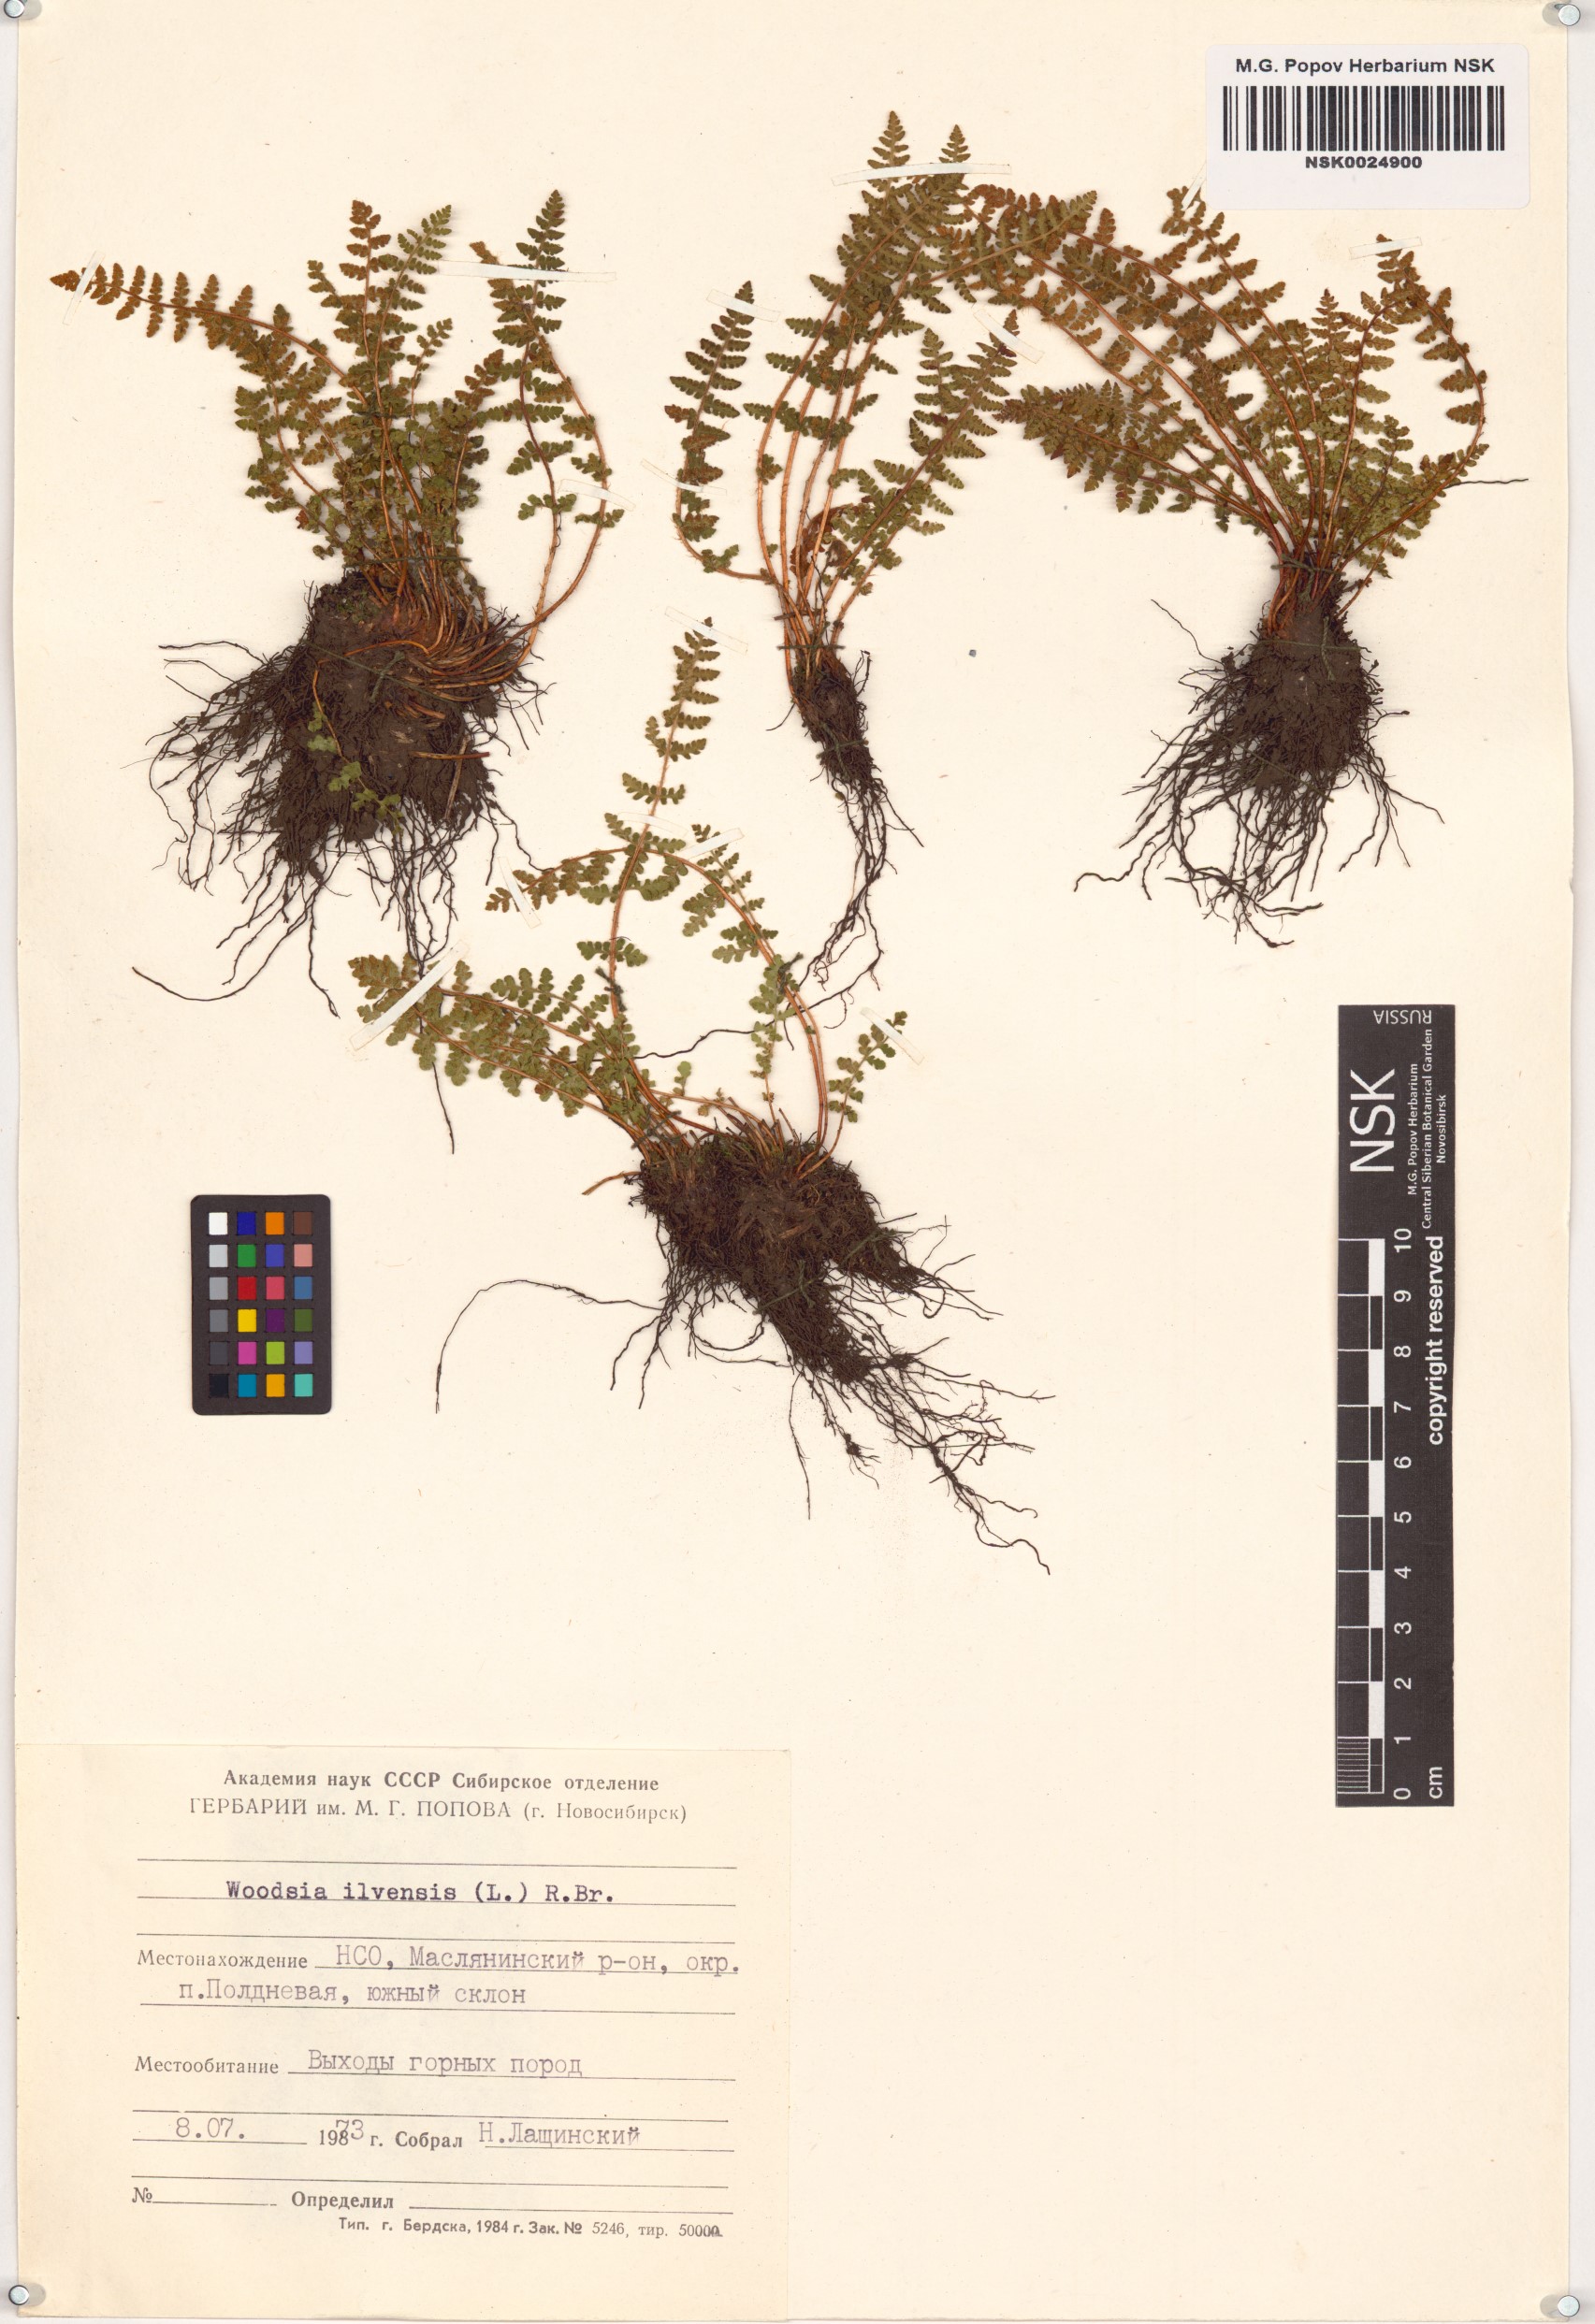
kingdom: Plantae
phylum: Tracheophyta
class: Polypodiopsida
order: Polypodiales
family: Woodsiaceae
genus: Woodsia
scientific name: Woodsia ilvensis
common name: Fragrant woodsia
